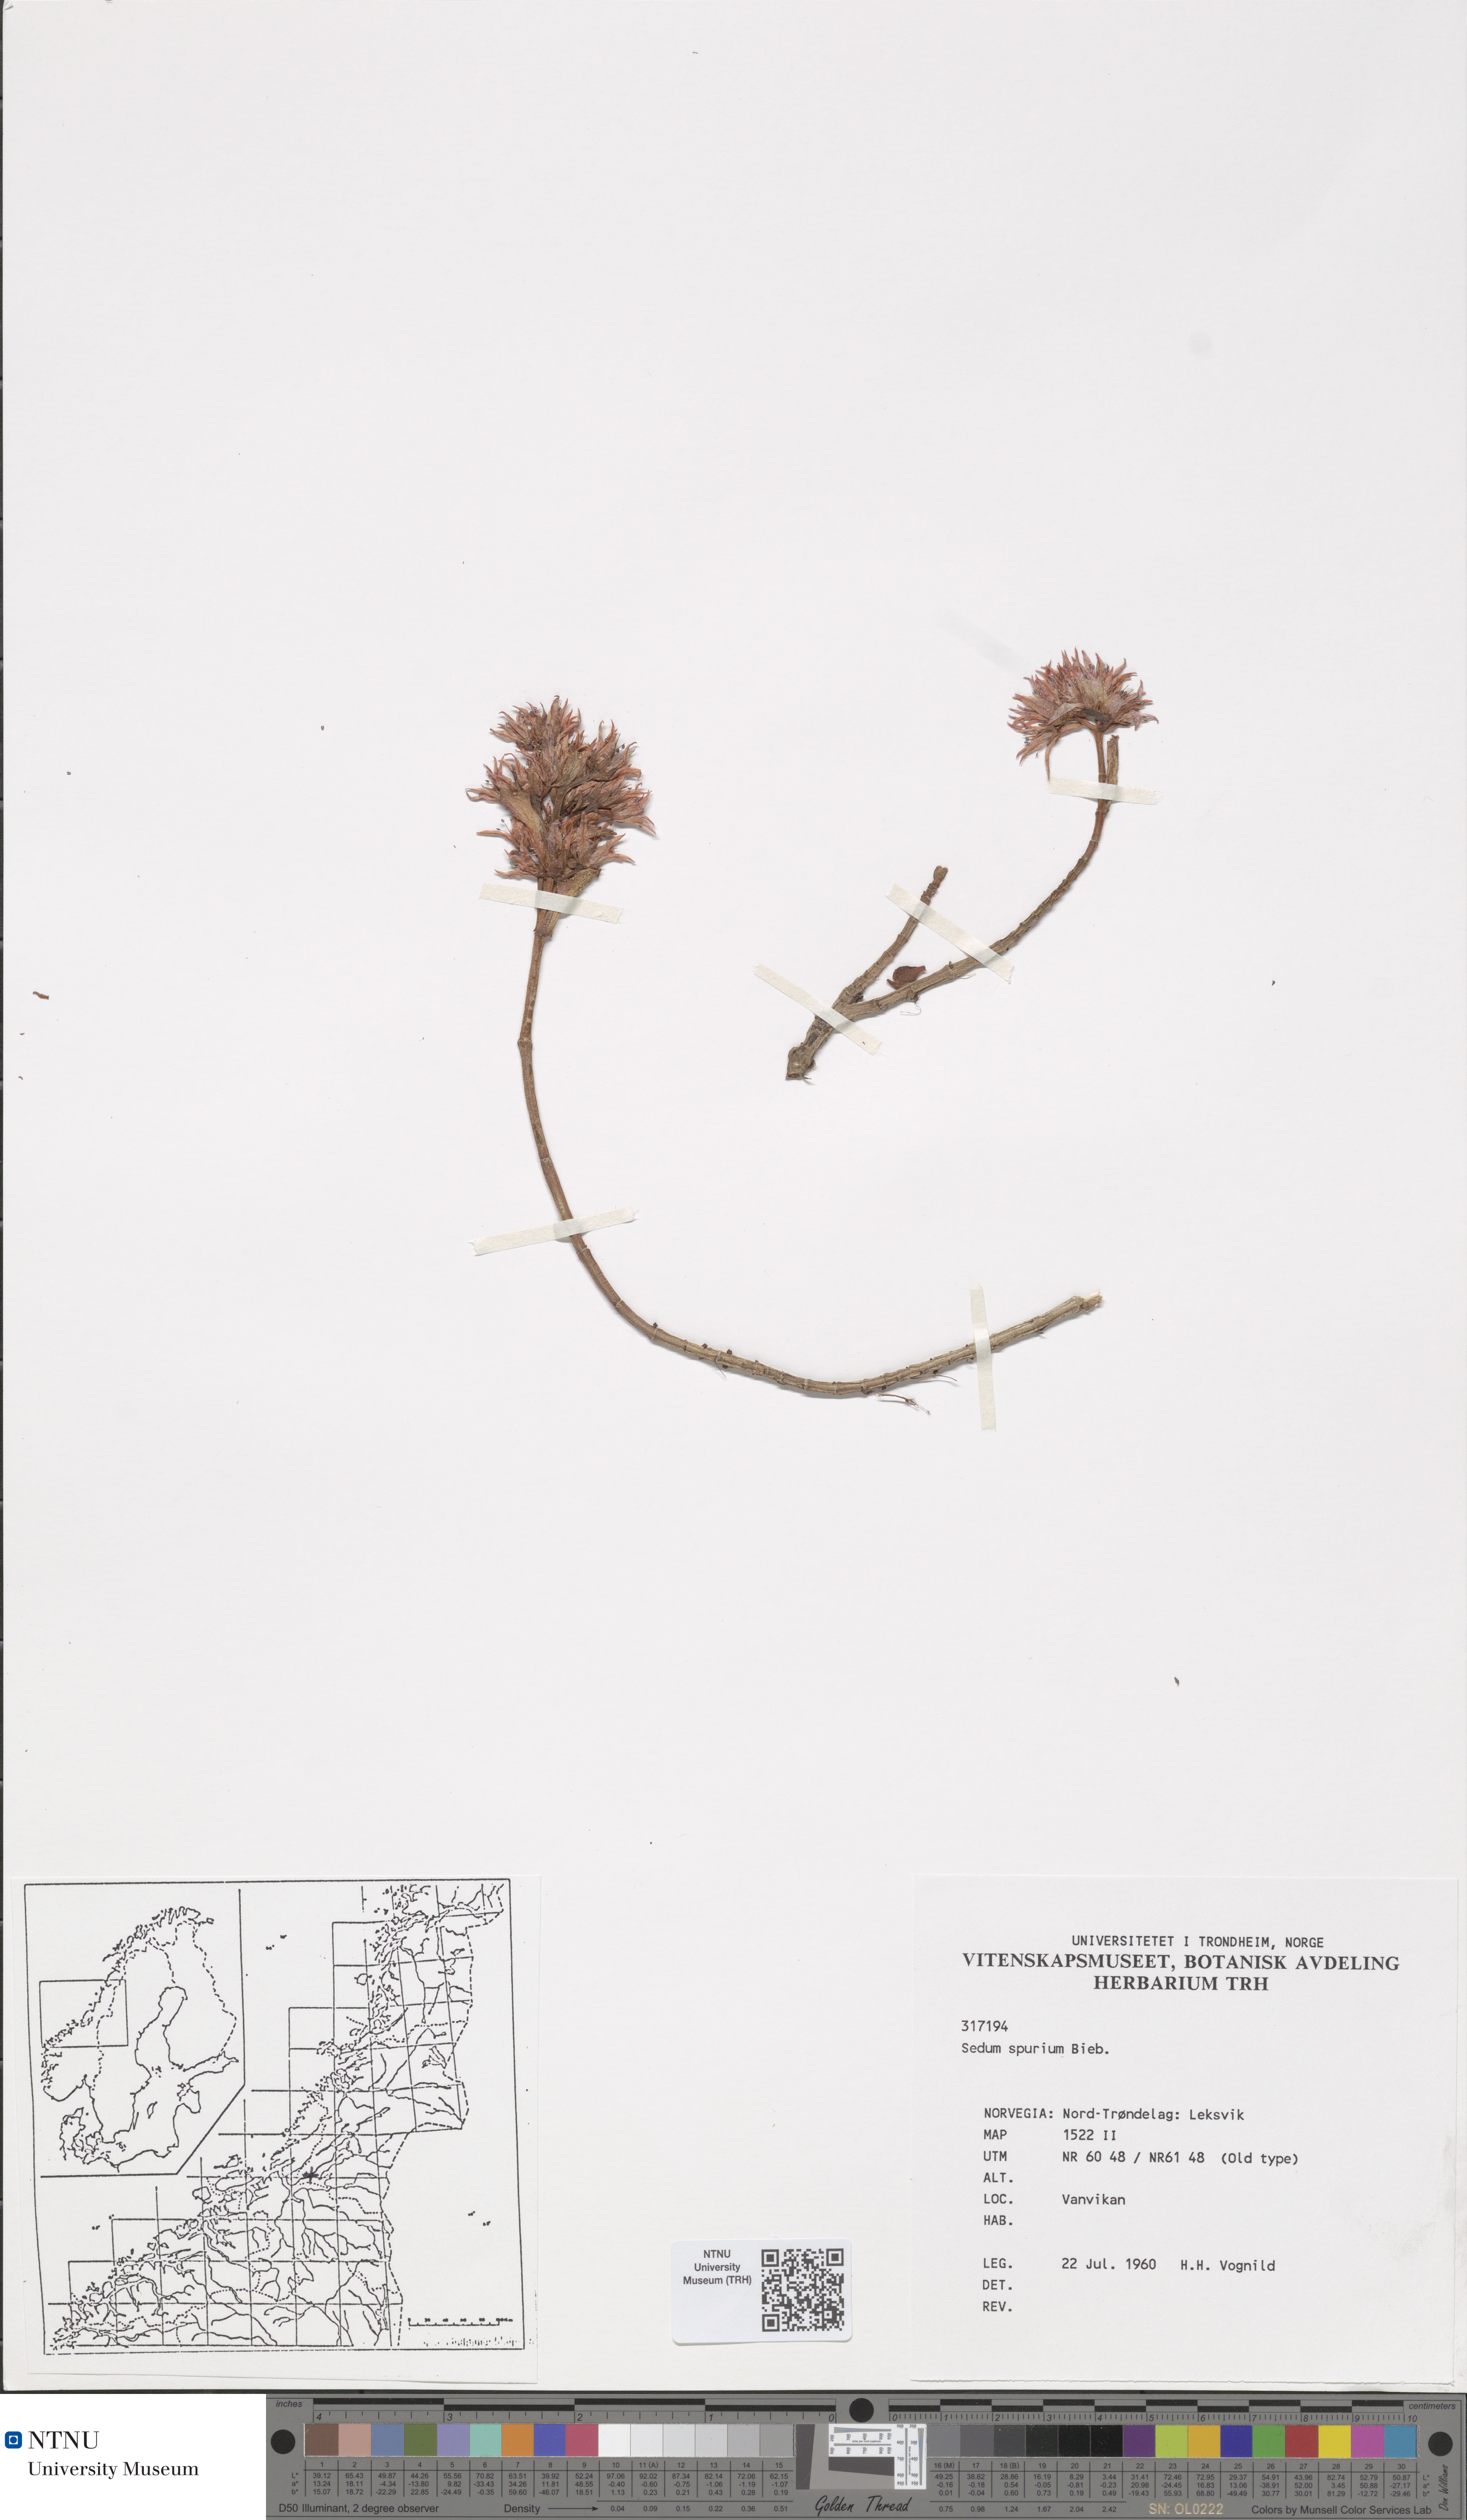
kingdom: Plantae
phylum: Tracheophyta
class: Magnoliopsida
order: Saxifragales
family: Crassulaceae
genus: Phedimus
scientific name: Phedimus spurius
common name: Caucasian stonecrop
